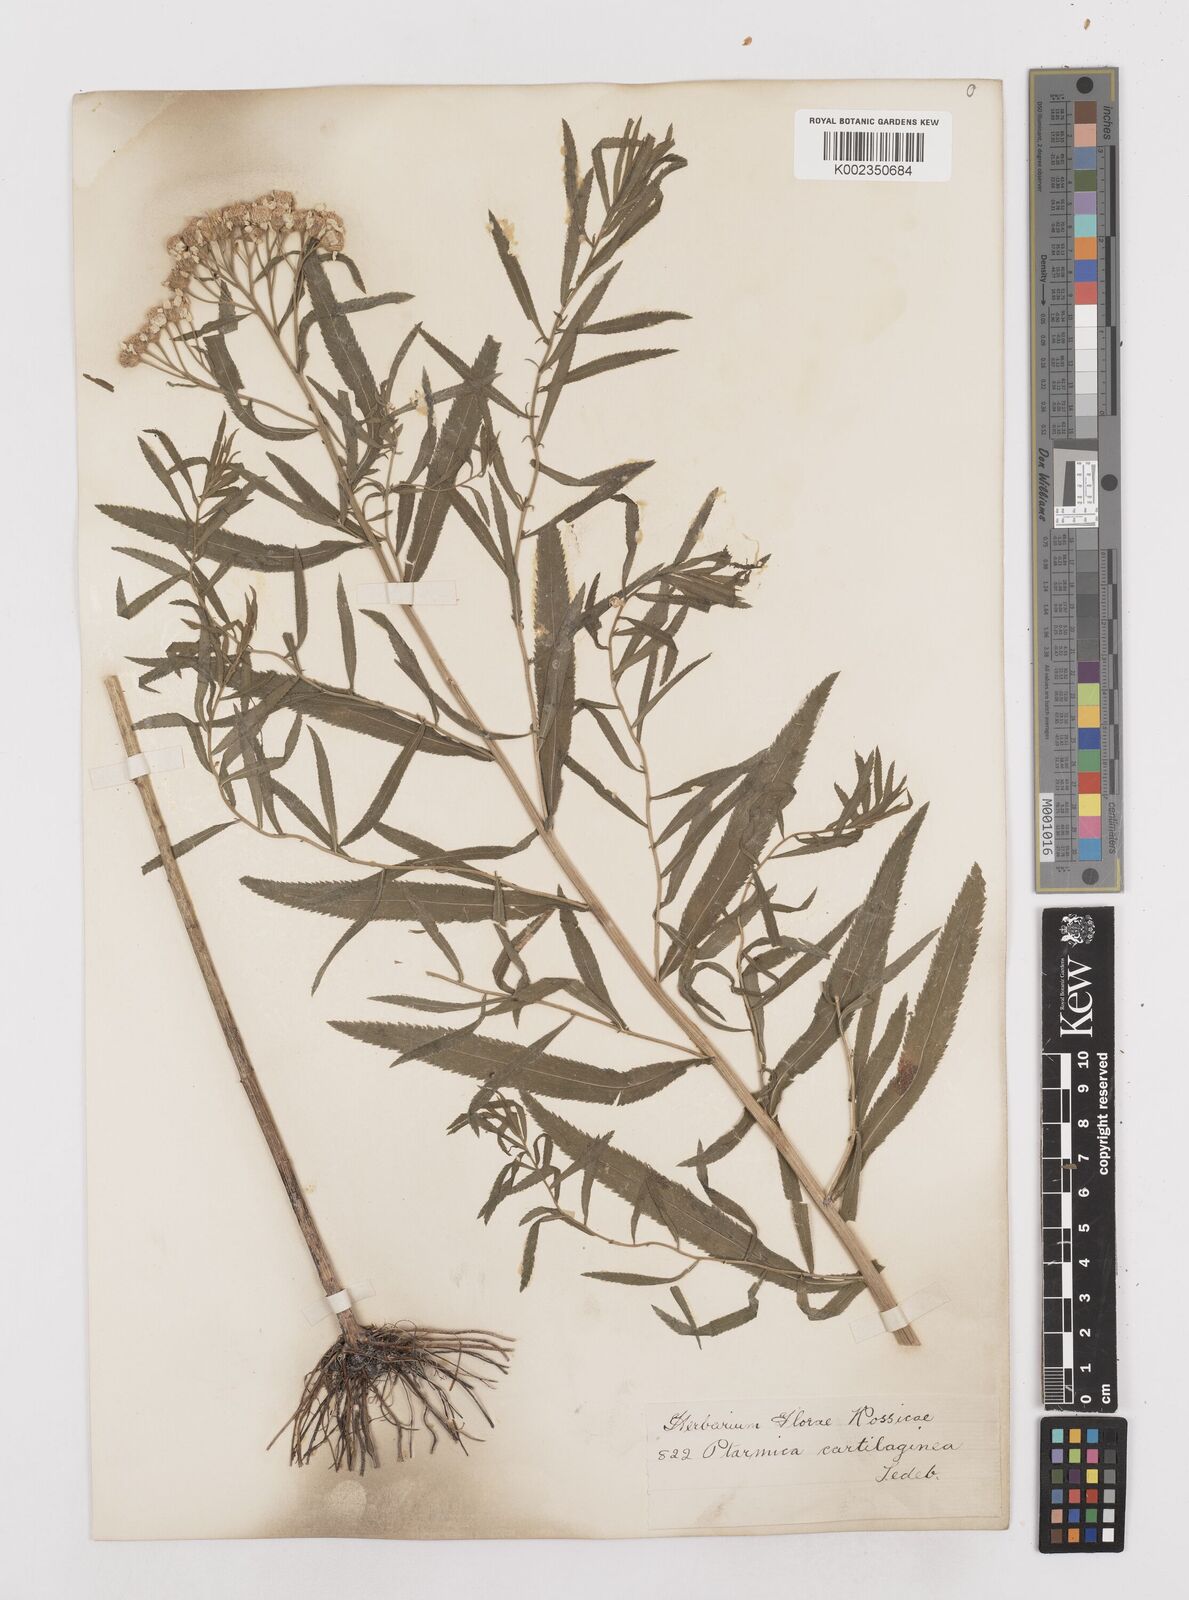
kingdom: Plantae
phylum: Tracheophyta
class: Magnoliopsida
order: Asterales
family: Asteraceae
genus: Achillea
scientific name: Achillea salicifolia
